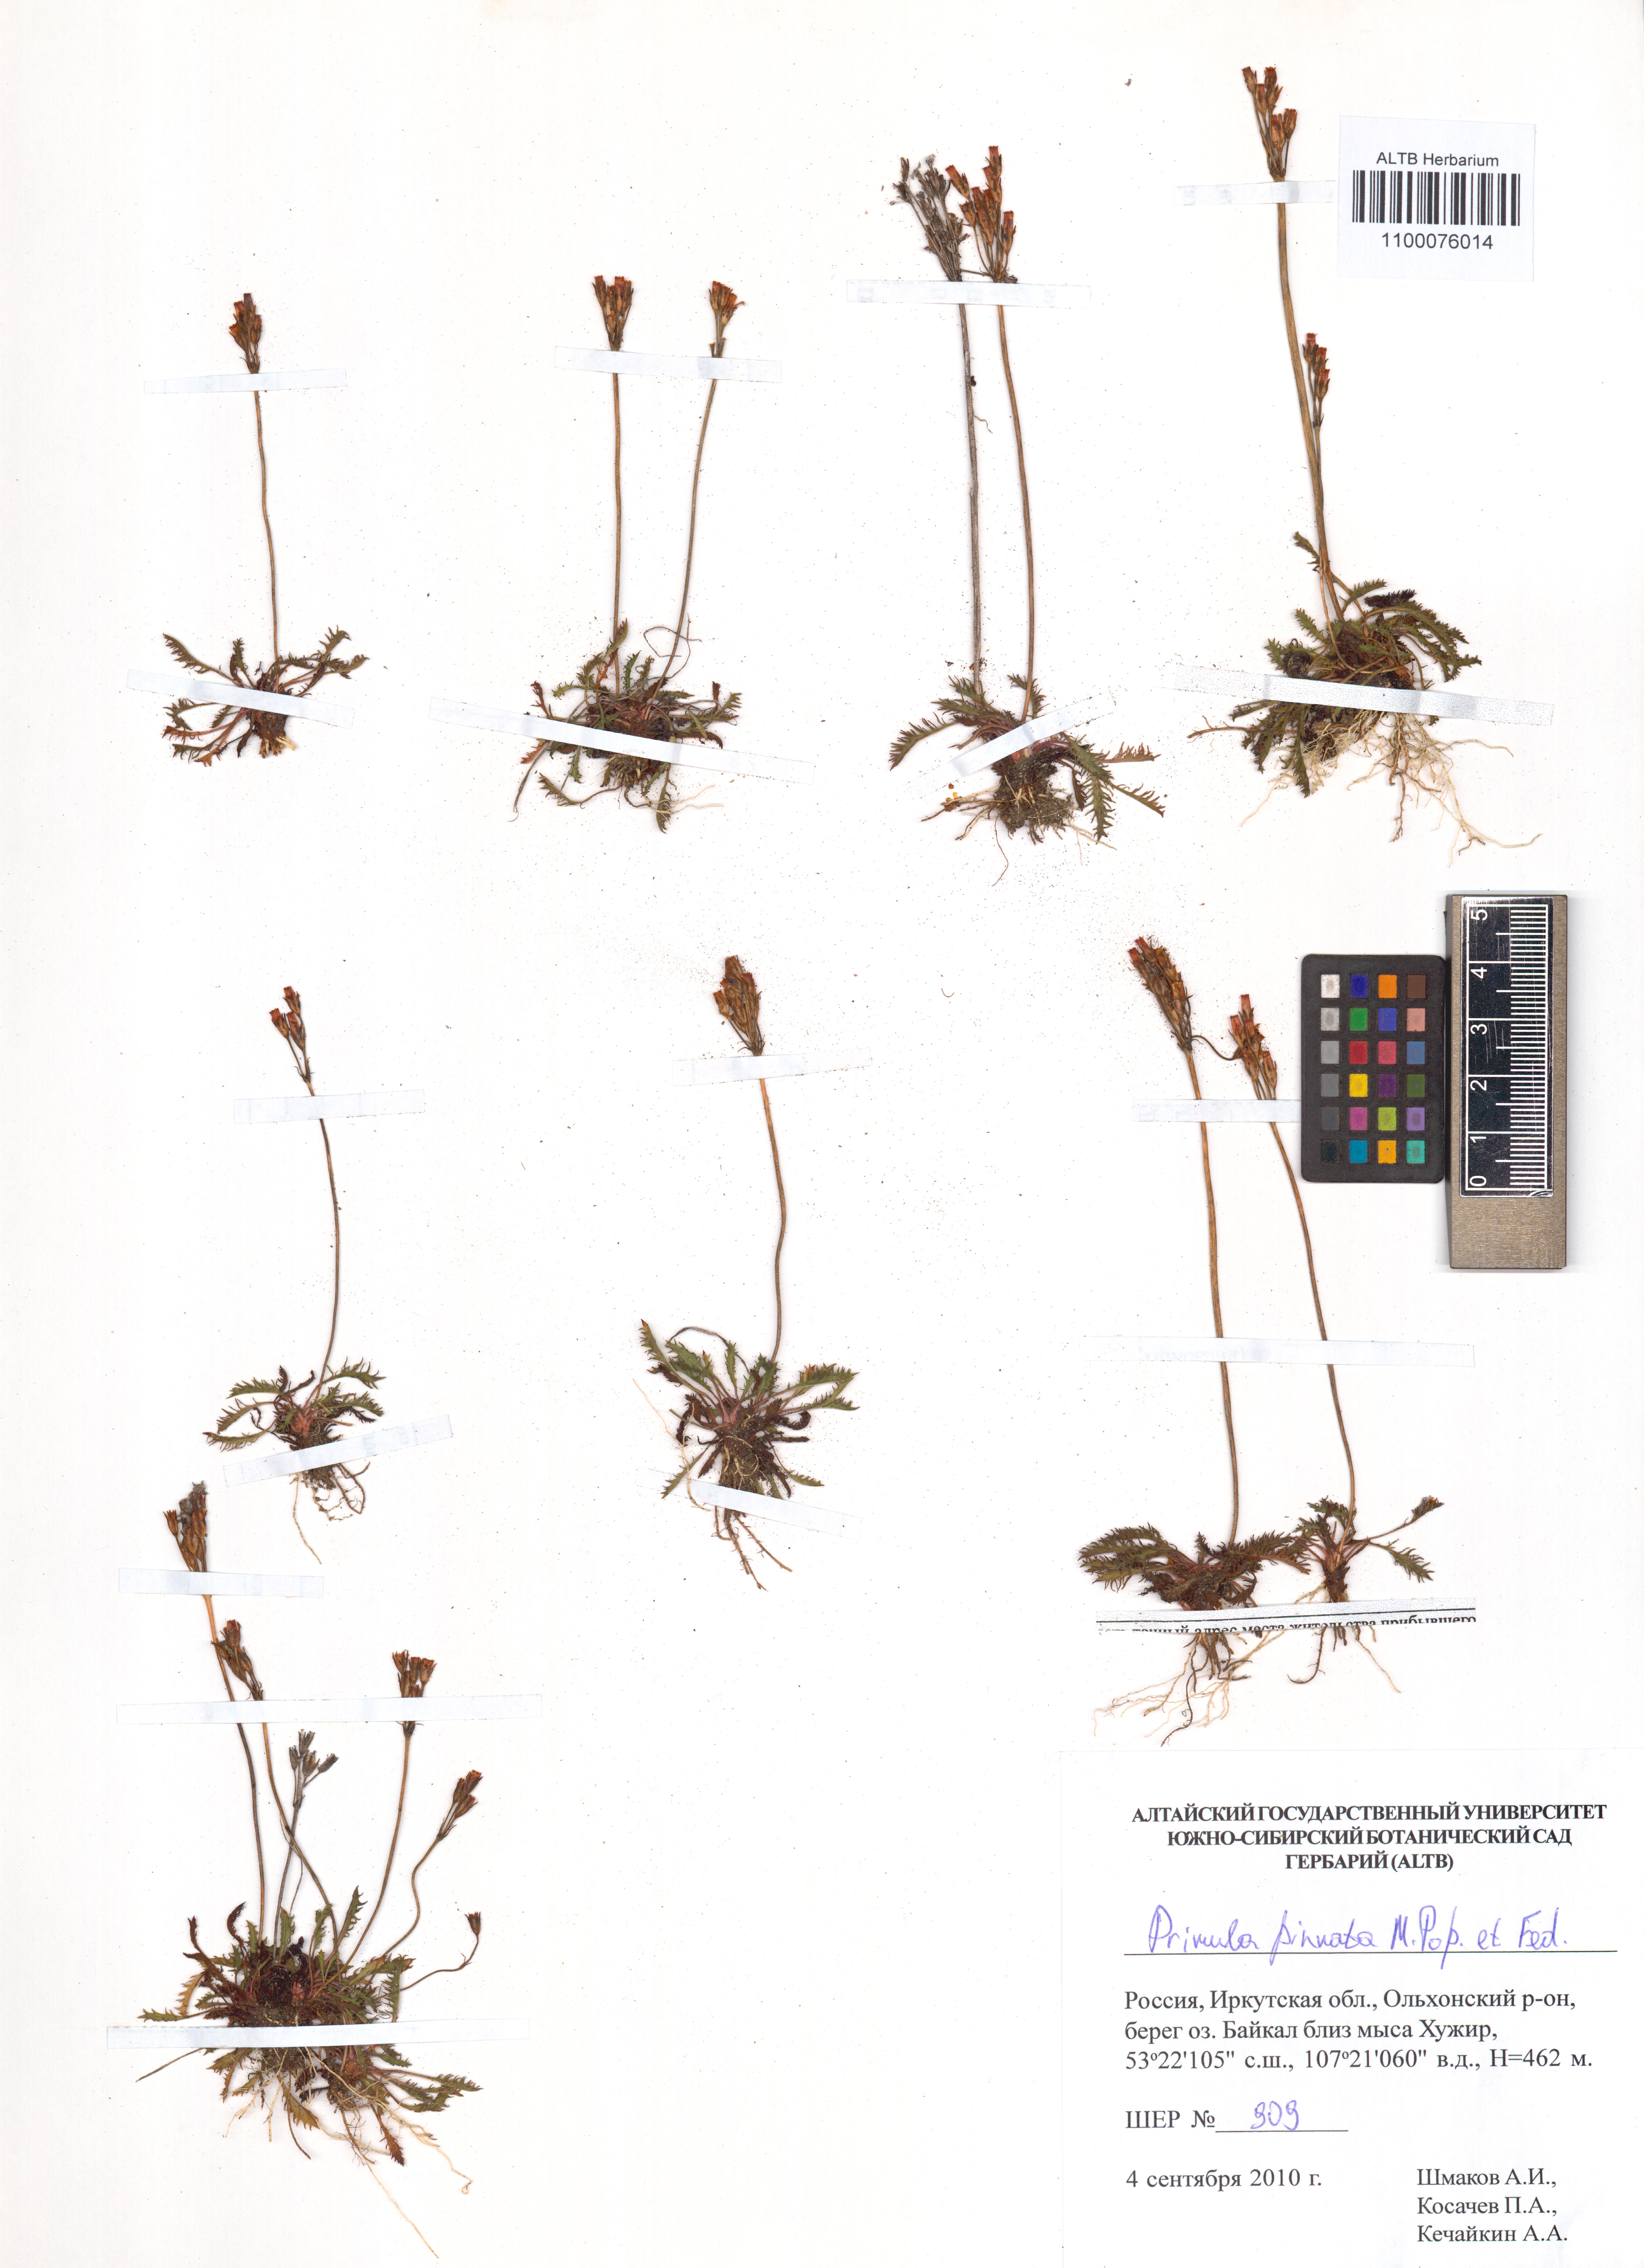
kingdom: Plantae
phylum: Tracheophyta
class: Magnoliopsida
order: Ericales
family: Primulaceae
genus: Primula
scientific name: Primula pinnata
